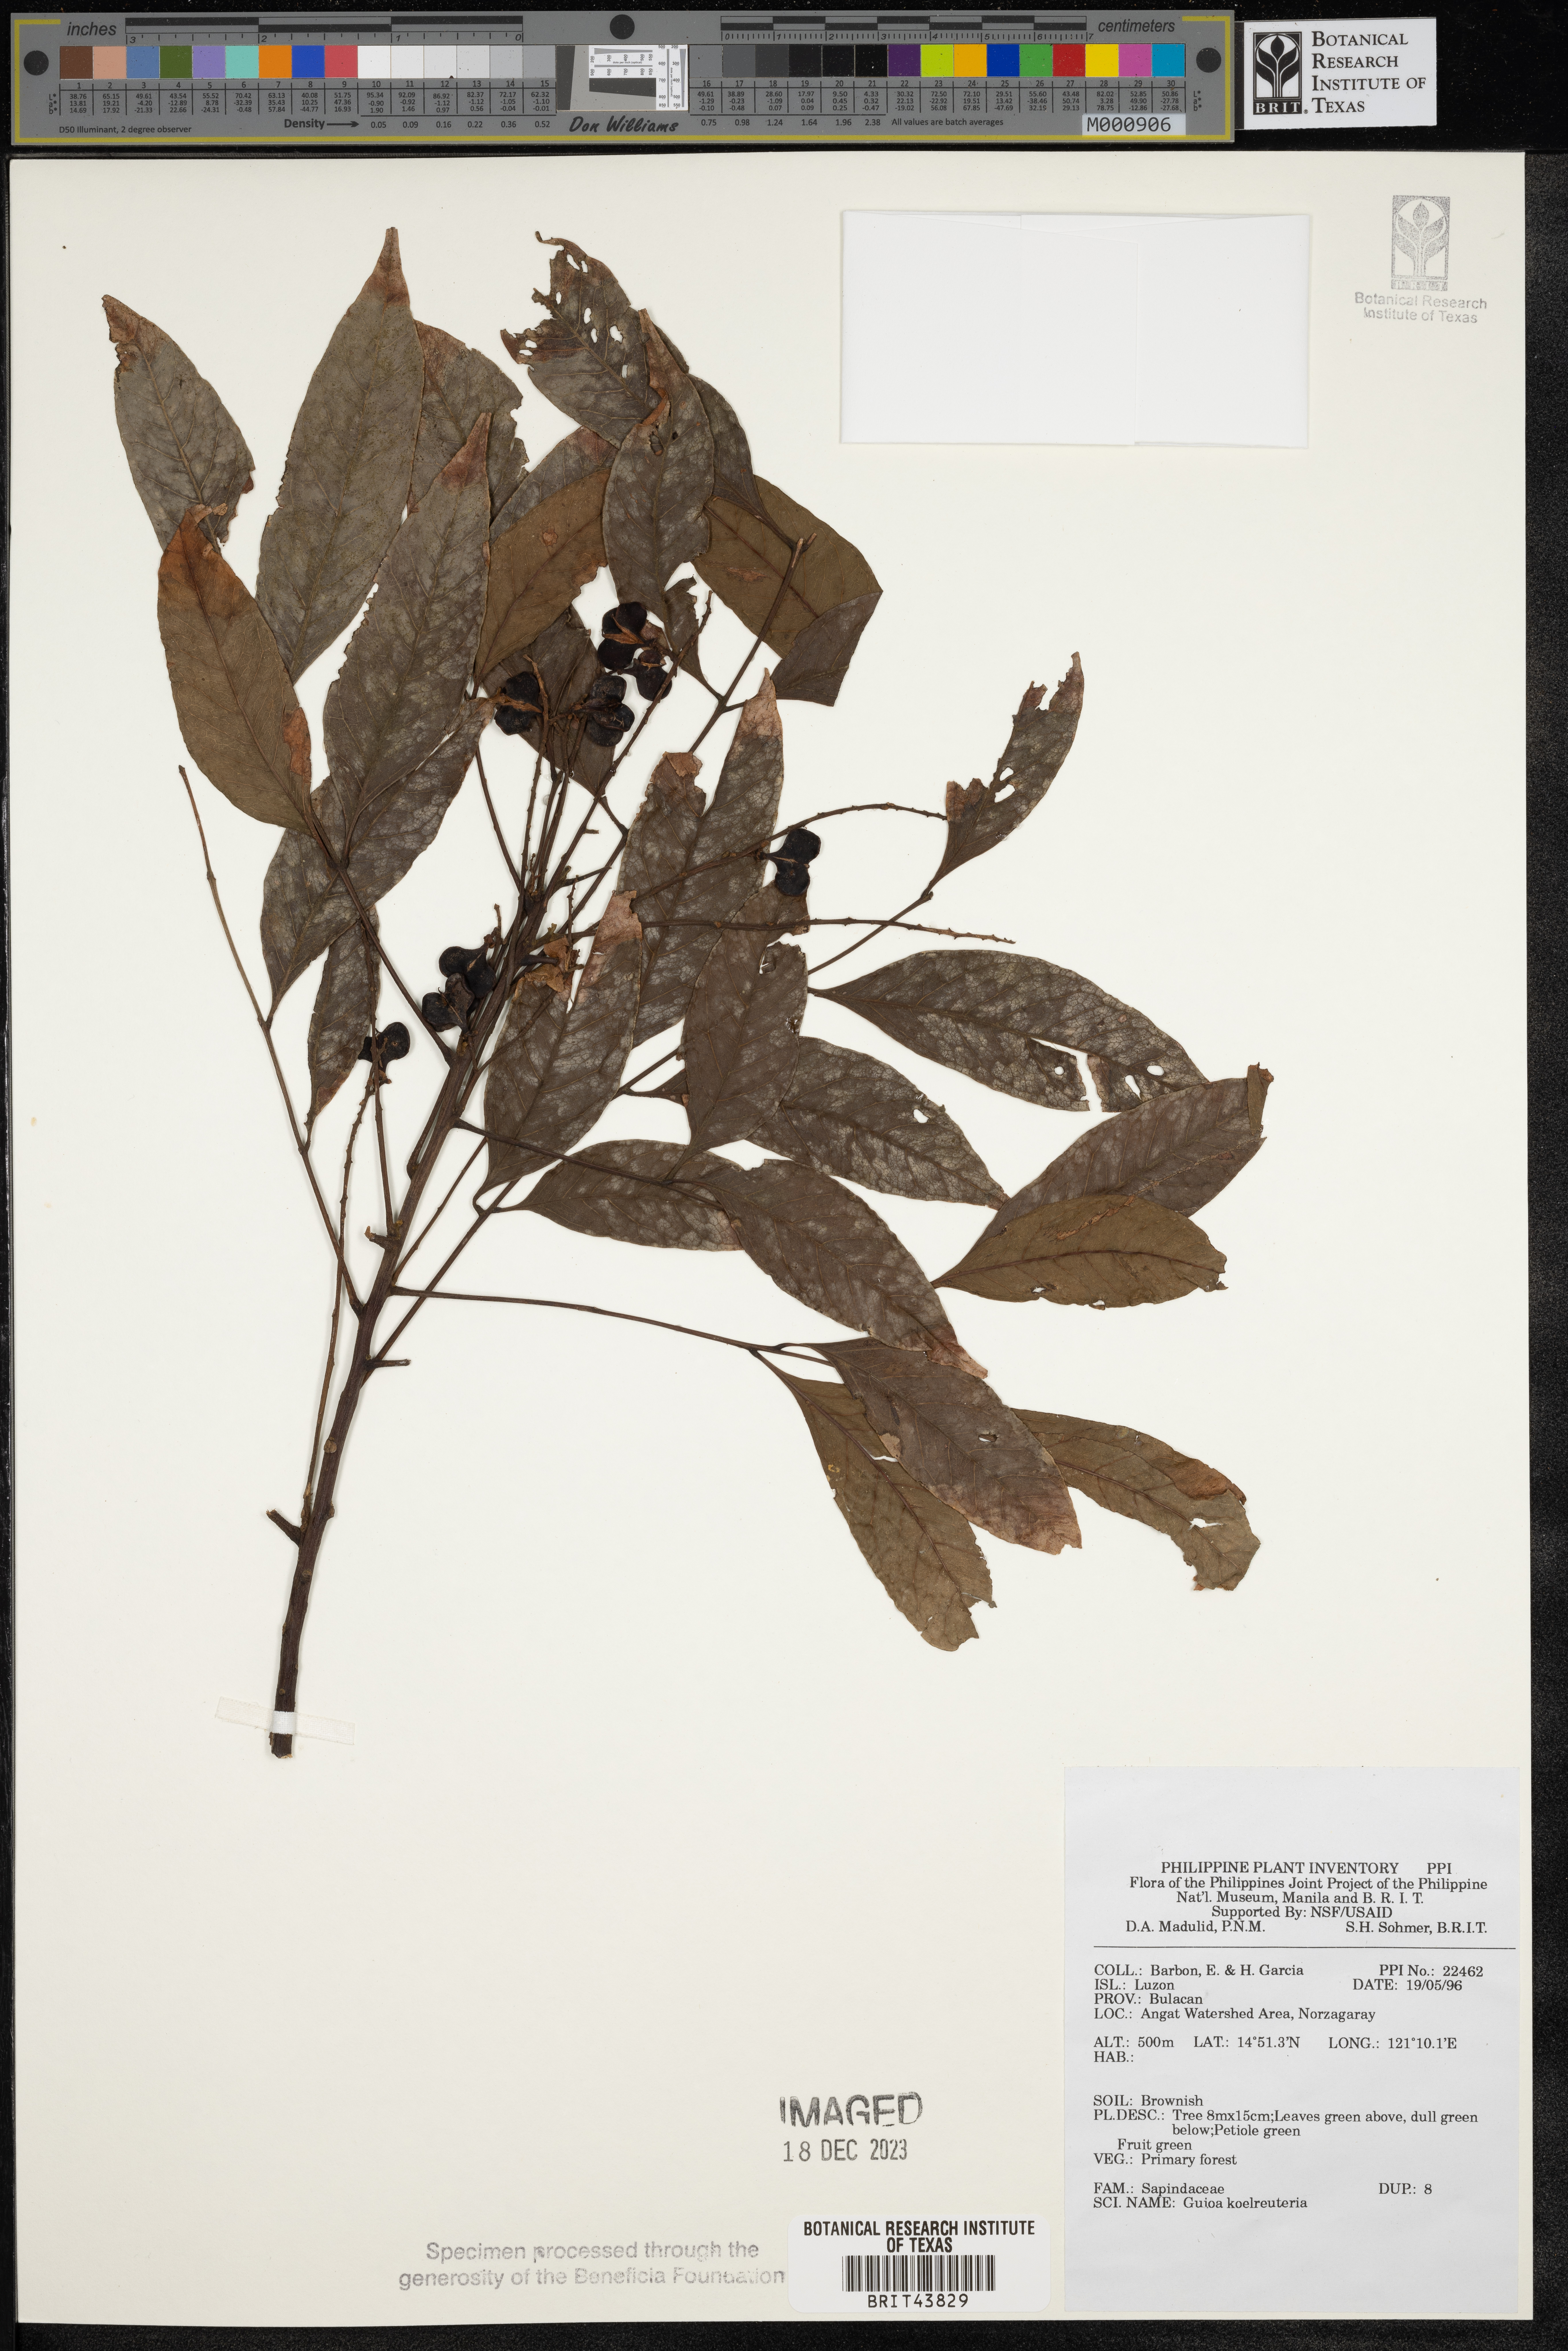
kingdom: Plantae
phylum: Tracheophyta
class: Magnoliopsida
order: Sapindales
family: Sapindaceae
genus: Guioa
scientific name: Guioa koelreuteria
